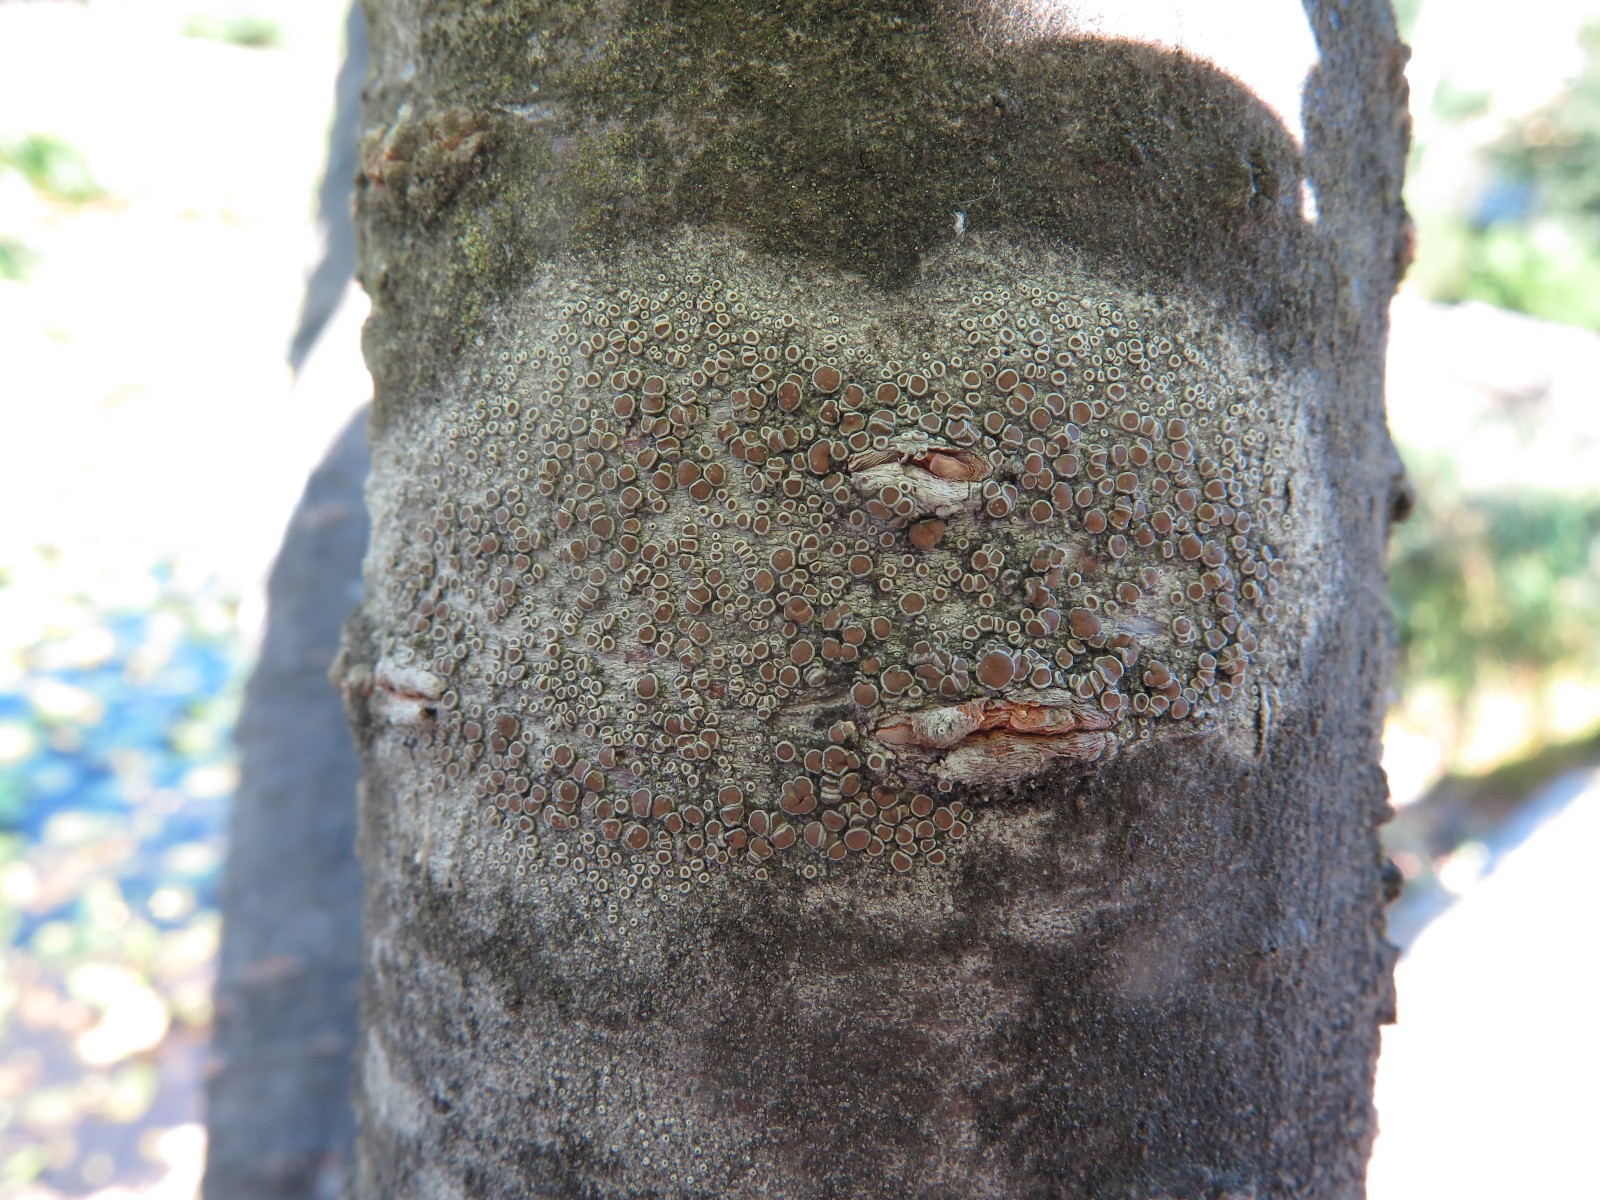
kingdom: Fungi
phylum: Ascomycota
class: Lecanoromycetes
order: Lecanorales
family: Lecanoraceae
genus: Lecanora
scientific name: Lecanora chlarotera
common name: brun kantskivelav
